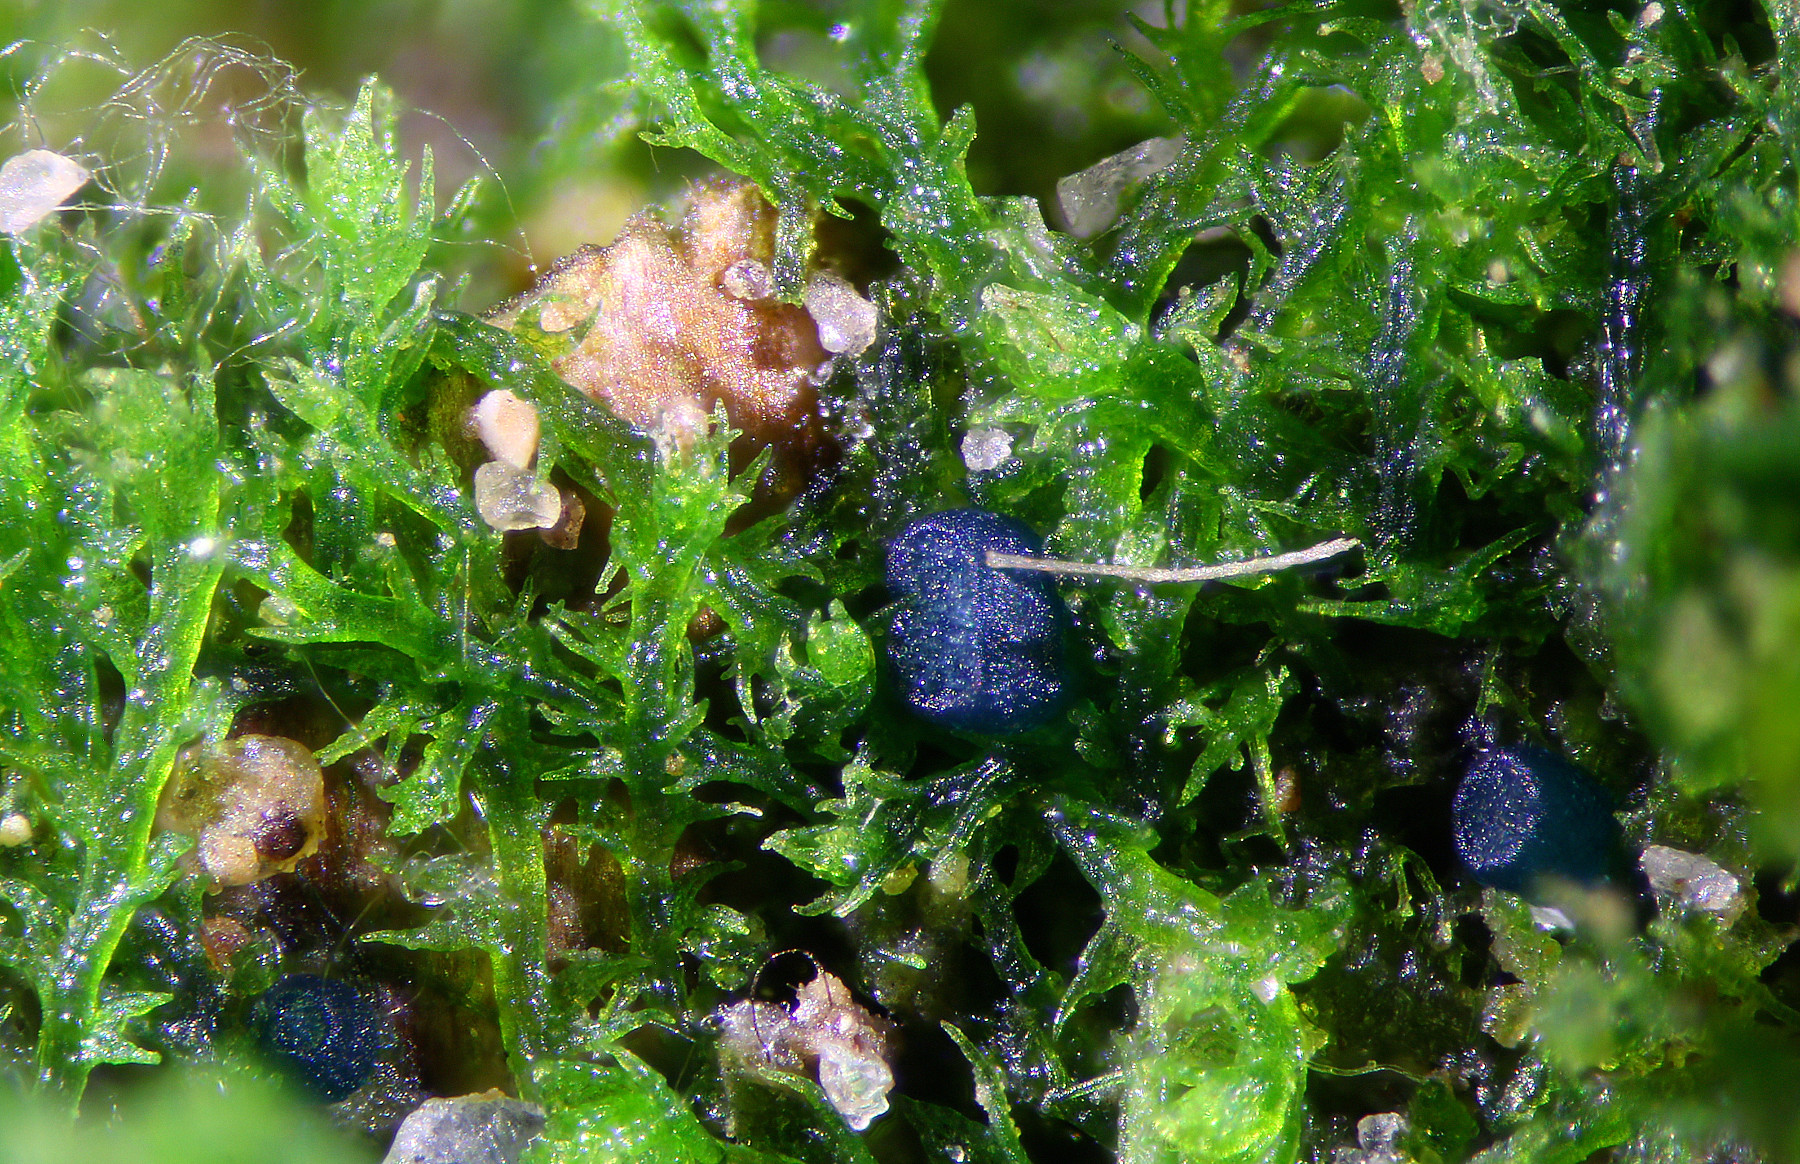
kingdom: Fungi
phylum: Ascomycota
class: Leotiomycetes
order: Leotiales
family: Mniaeciaceae
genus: Mniaecia
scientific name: Mniaecia jungermanniae
